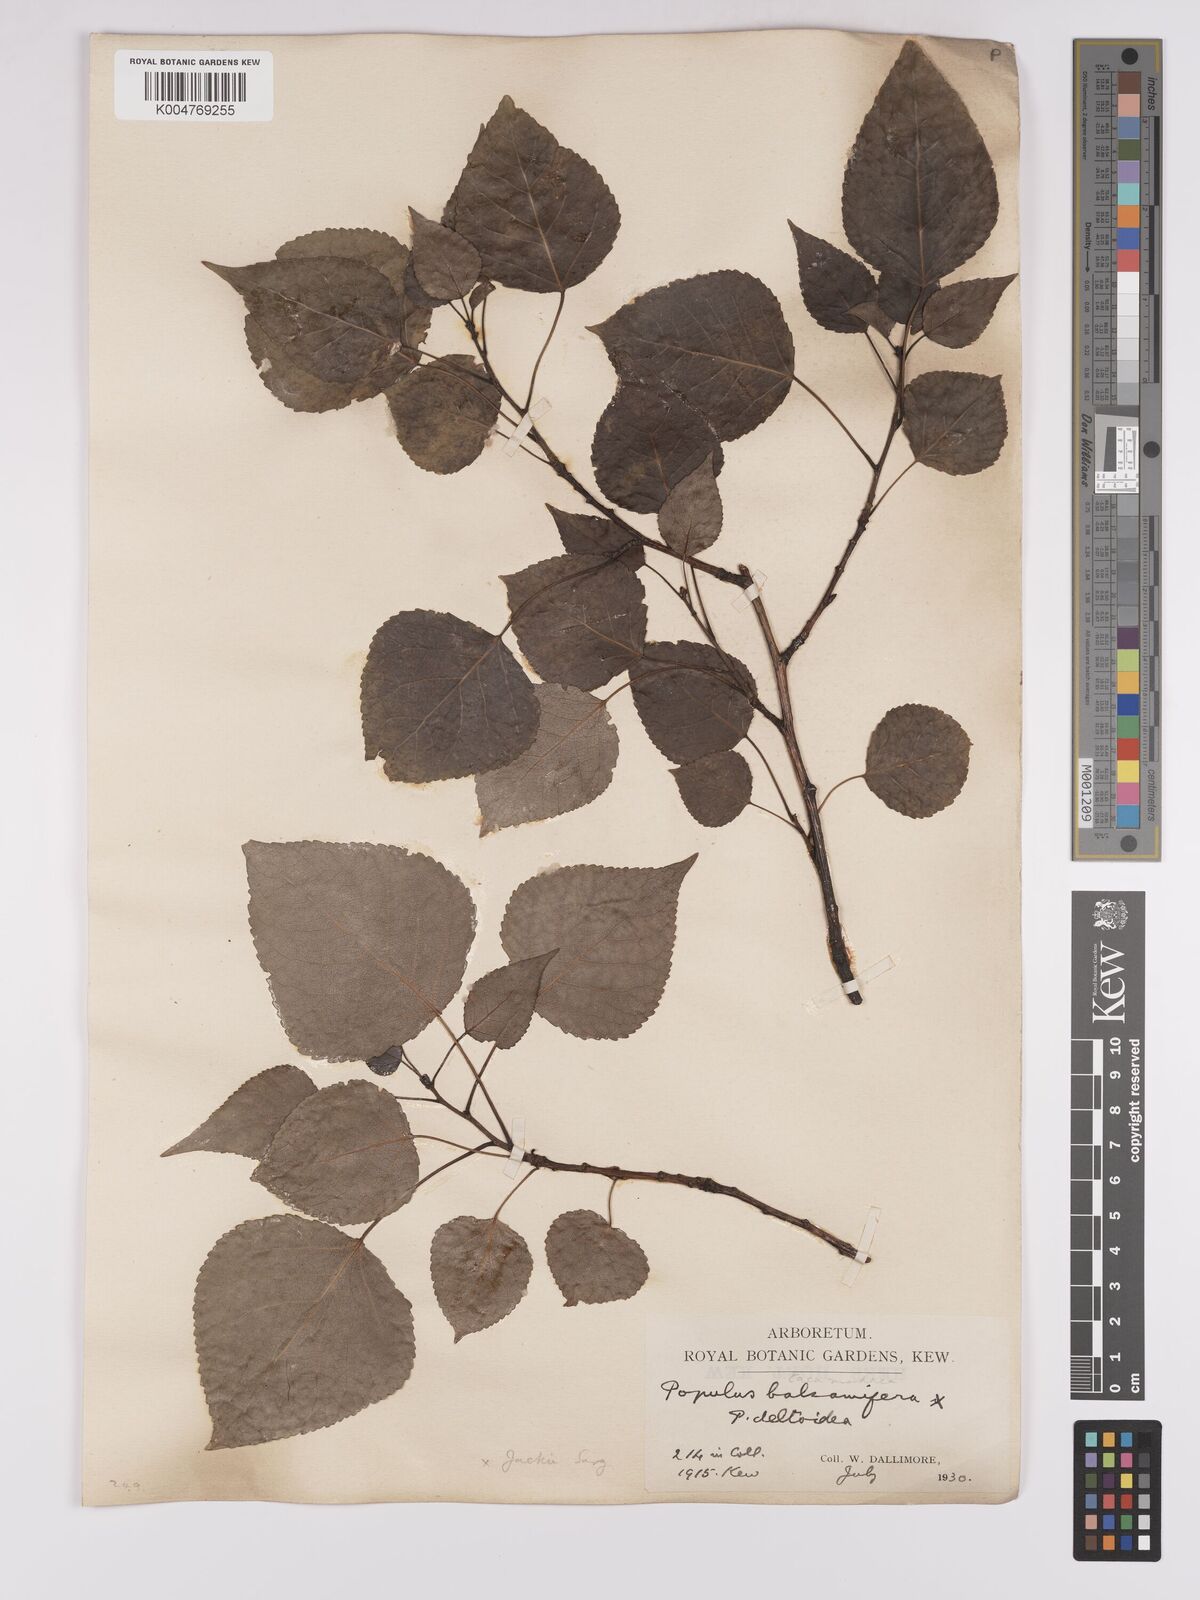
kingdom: Plantae
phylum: Tracheophyta
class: Magnoliopsida
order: Malpighiales
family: Salicaceae
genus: Populus
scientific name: Populus jackii
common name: Balm-of-gilead
